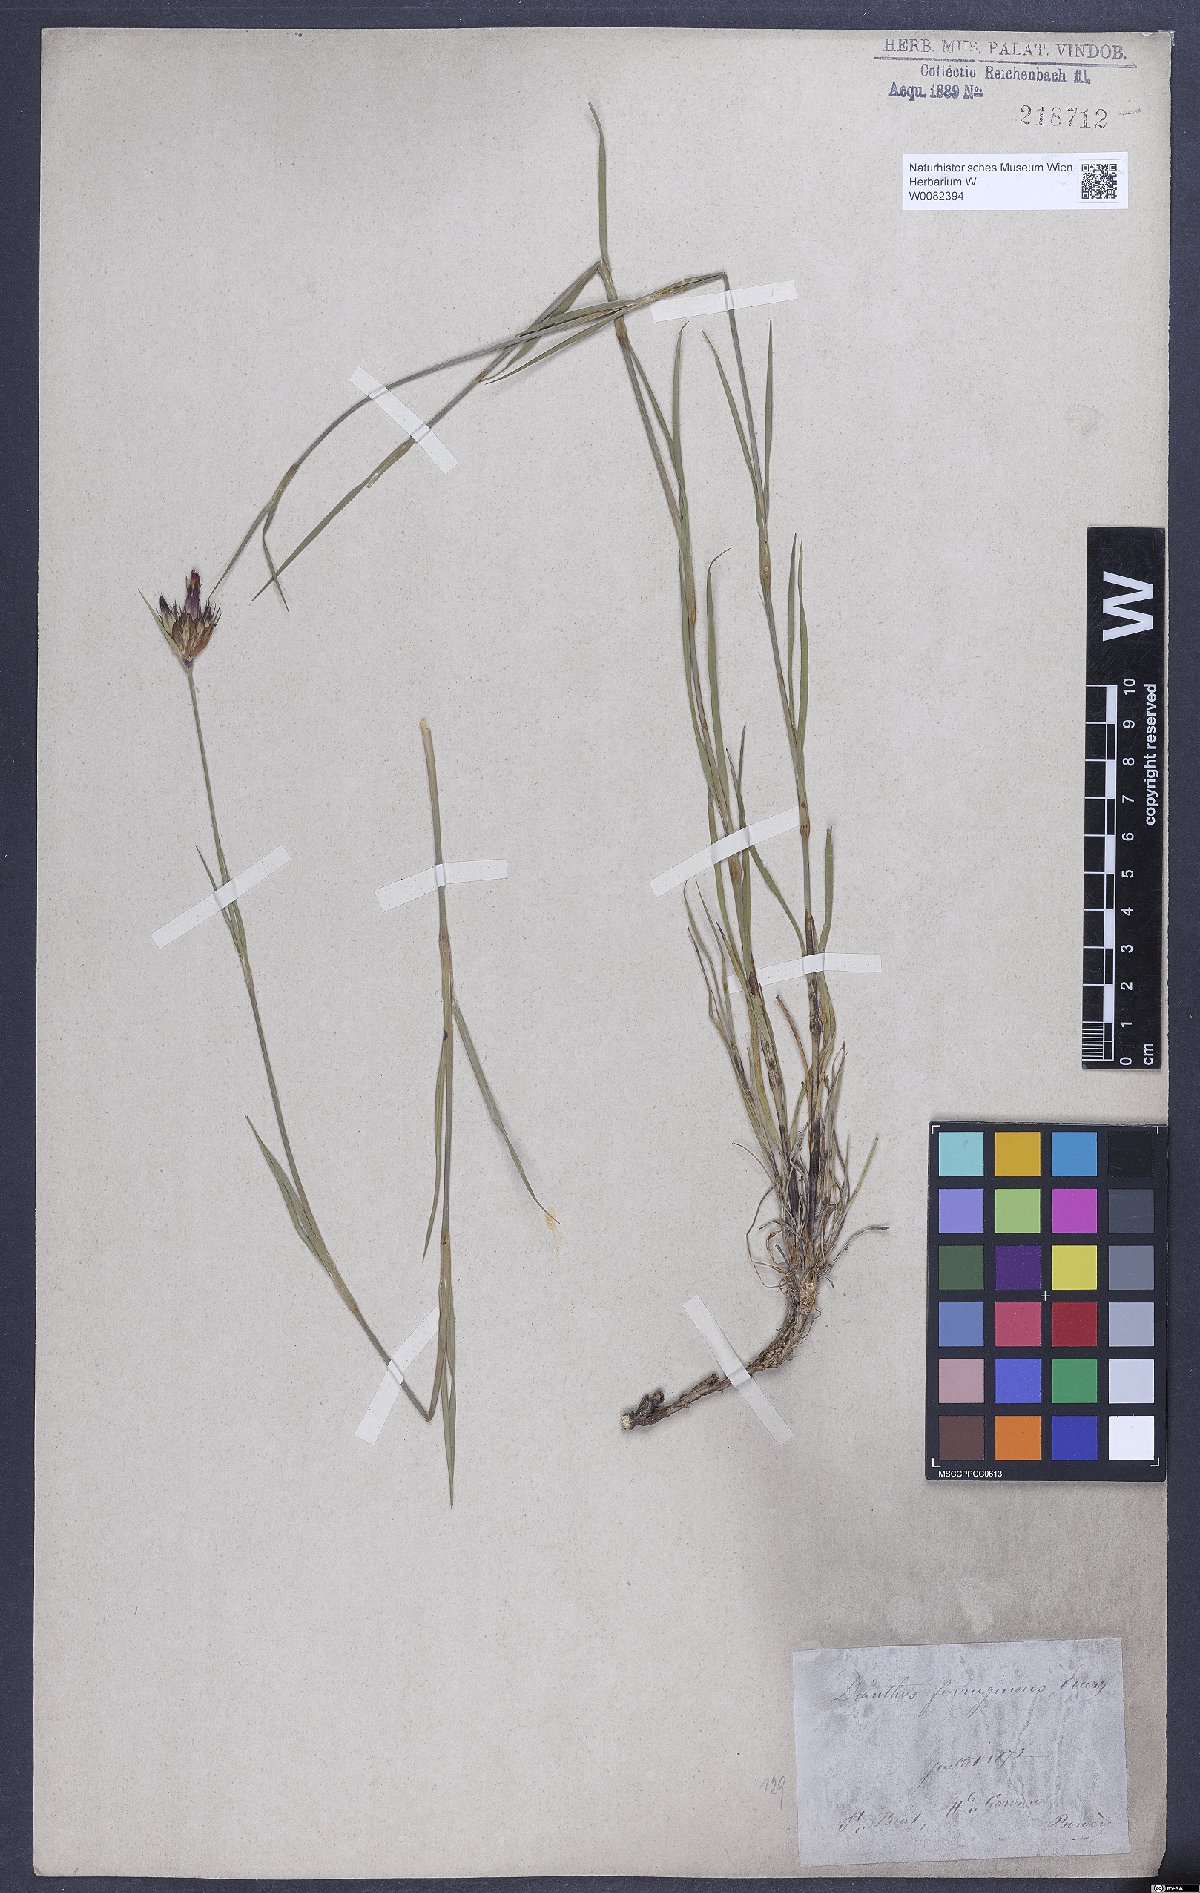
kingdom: Plantae
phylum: Tracheophyta
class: Magnoliopsida
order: Caryophyllales
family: Caryophyllaceae
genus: Dianthus
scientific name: Dianthus carthusianorum
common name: Carthusian pink
